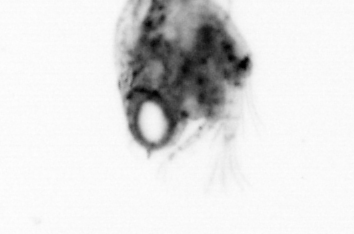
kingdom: Animalia
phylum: Arthropoda
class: Malacostraca
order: Decapoda
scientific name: Decapoda
